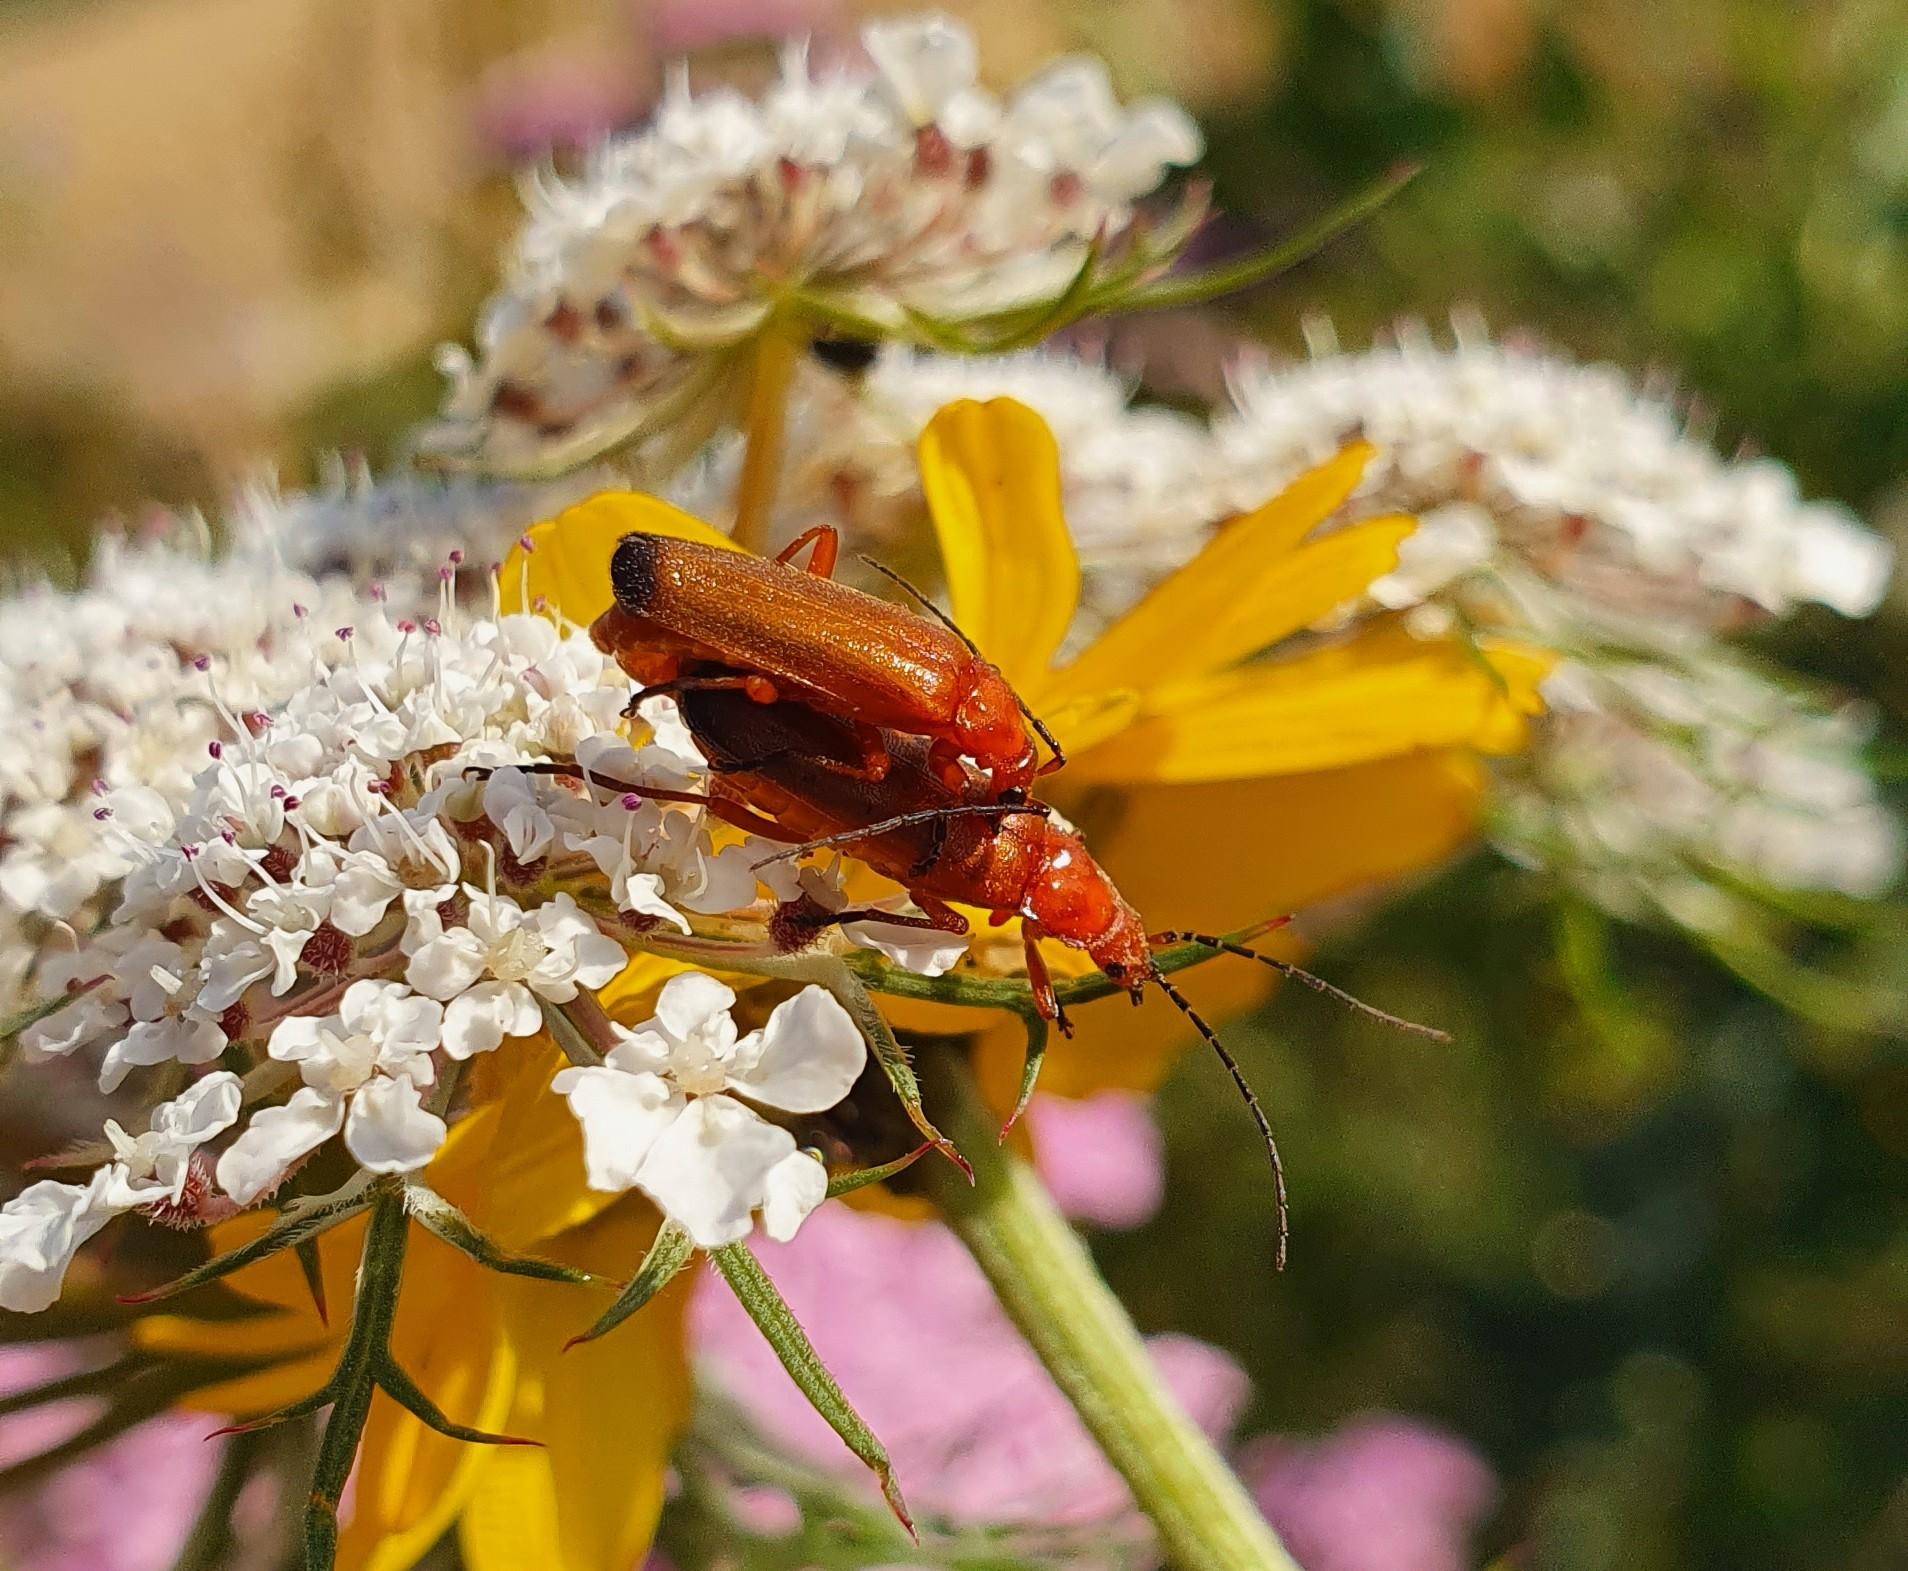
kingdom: Animalia
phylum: Arthropoda
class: Insecta
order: Coleoptera
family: Cantharidae
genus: Rhagonycha
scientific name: Rhagonycha fulva
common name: Præstebille
